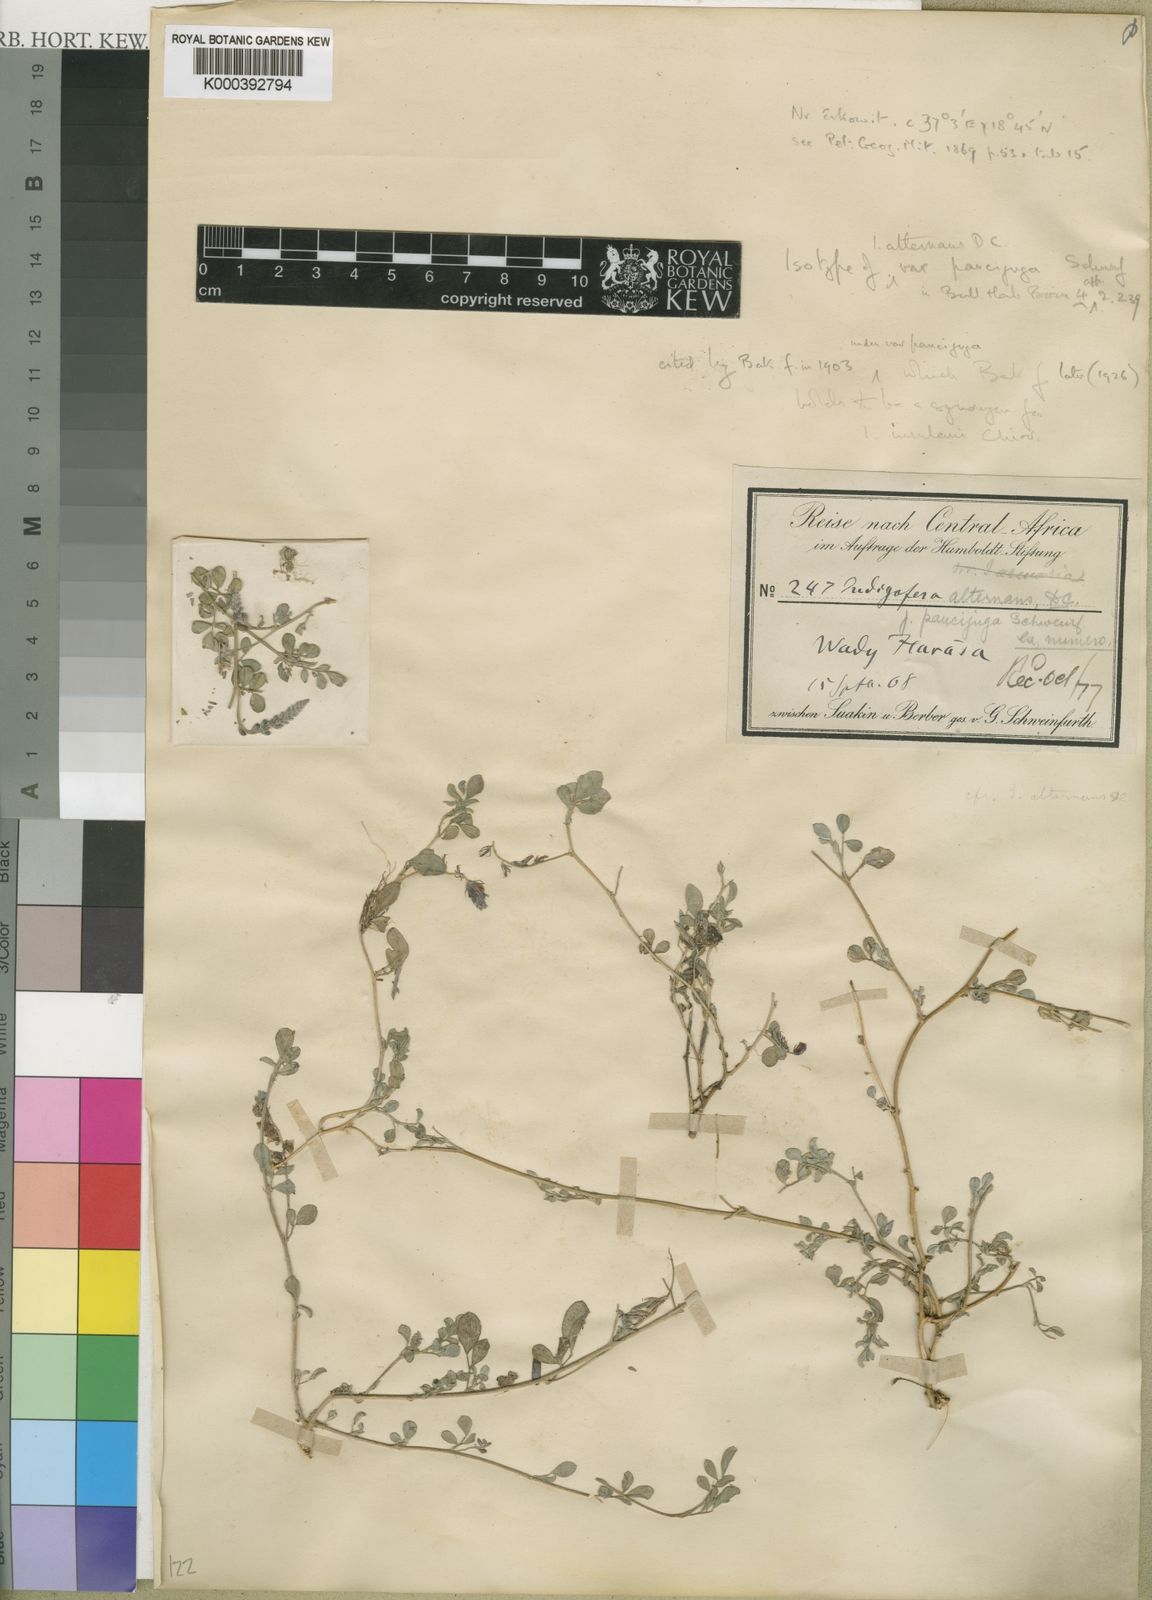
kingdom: Plantae
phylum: Tracheophyta
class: Magnoliopsida
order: Fabales
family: Fabaceae
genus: Indigofera
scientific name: Indigofera volkensii
